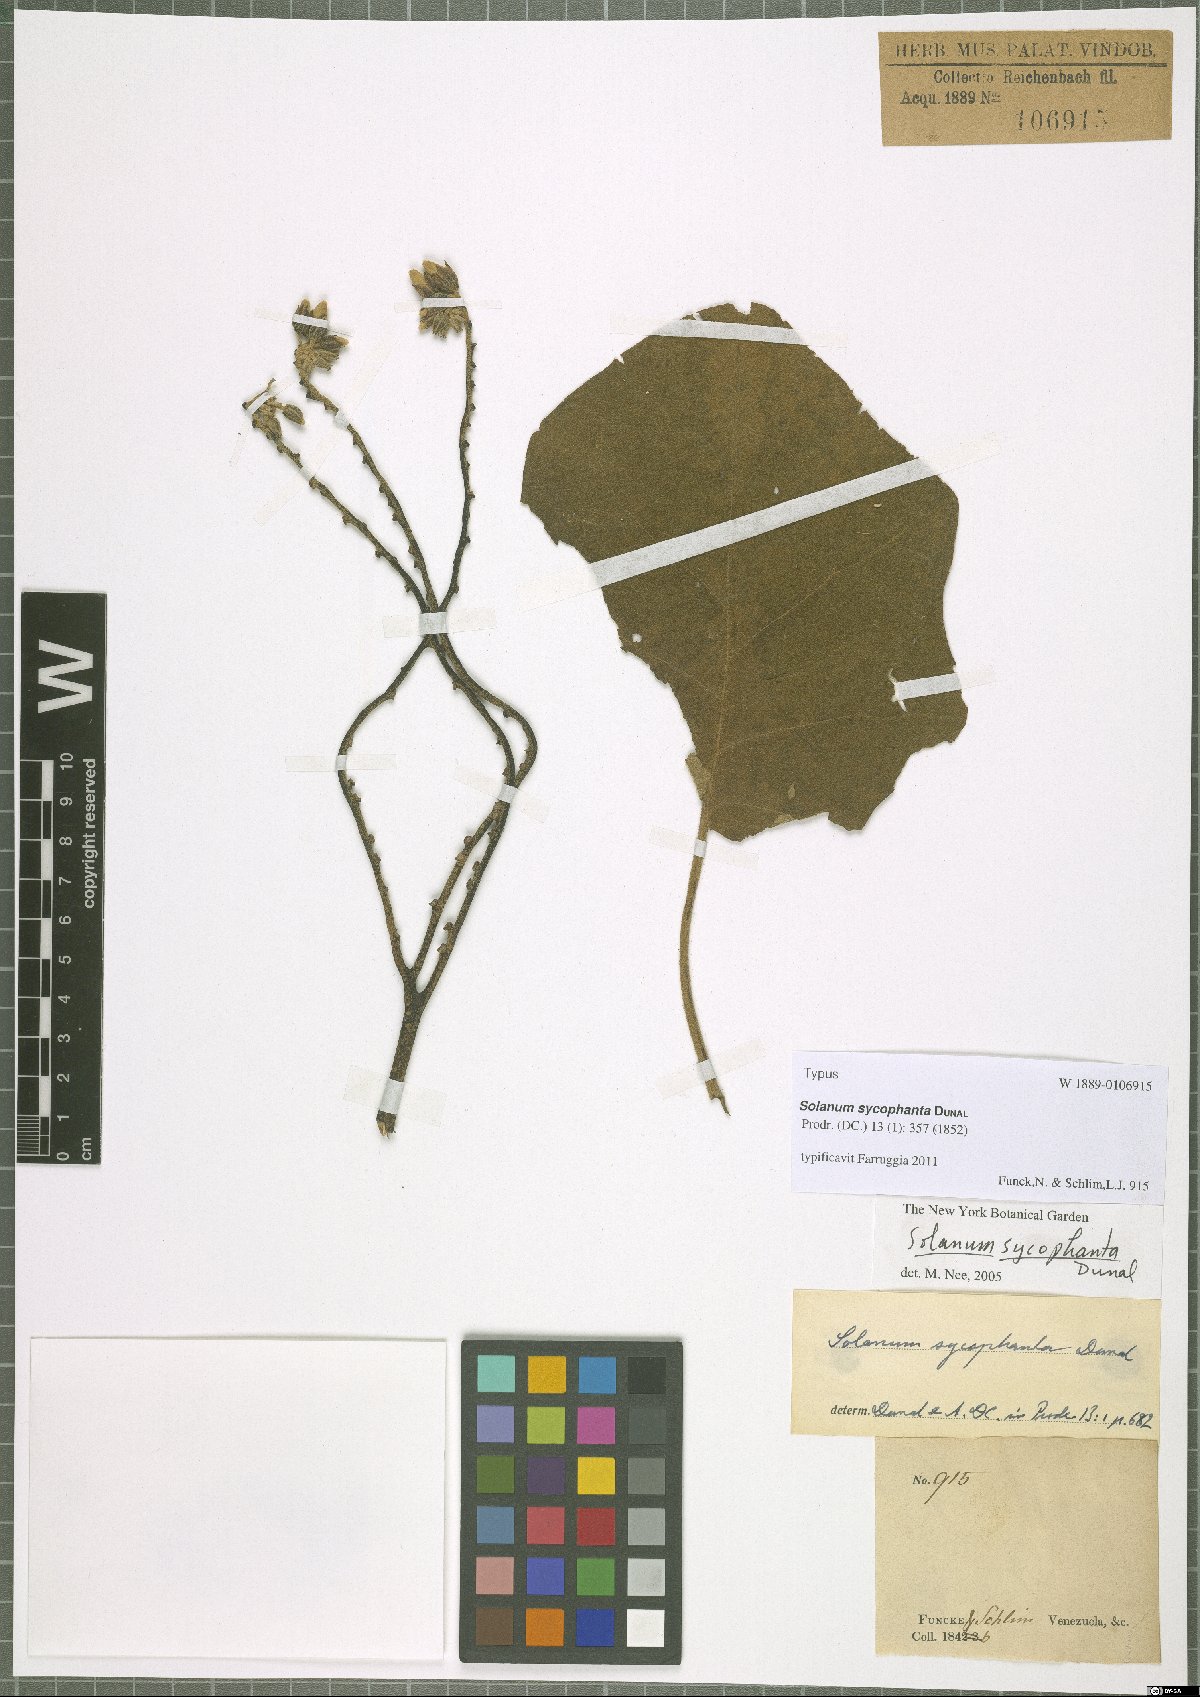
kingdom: Plantae
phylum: Tracheophyta
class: Magnoliopsida
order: Solanales
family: Solanaceae
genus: Solanum
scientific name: Solanum sycophanta
